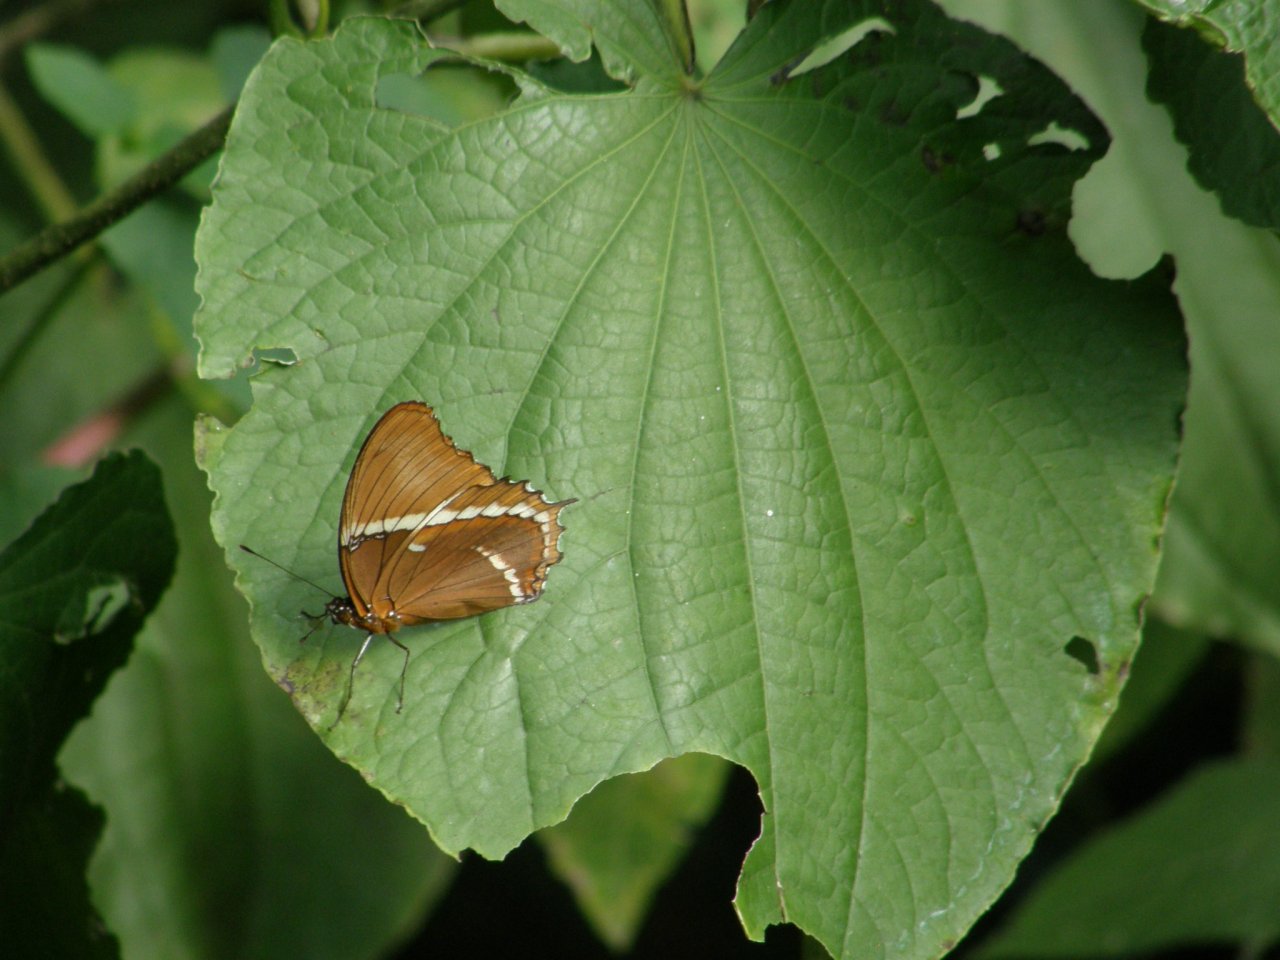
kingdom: Animalia
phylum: Arthropoda
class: Insecta
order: Lepidoptera
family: Nymphalidae
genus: Siproeta
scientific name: Siproeta epaphus
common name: Rusty-tipped Page
